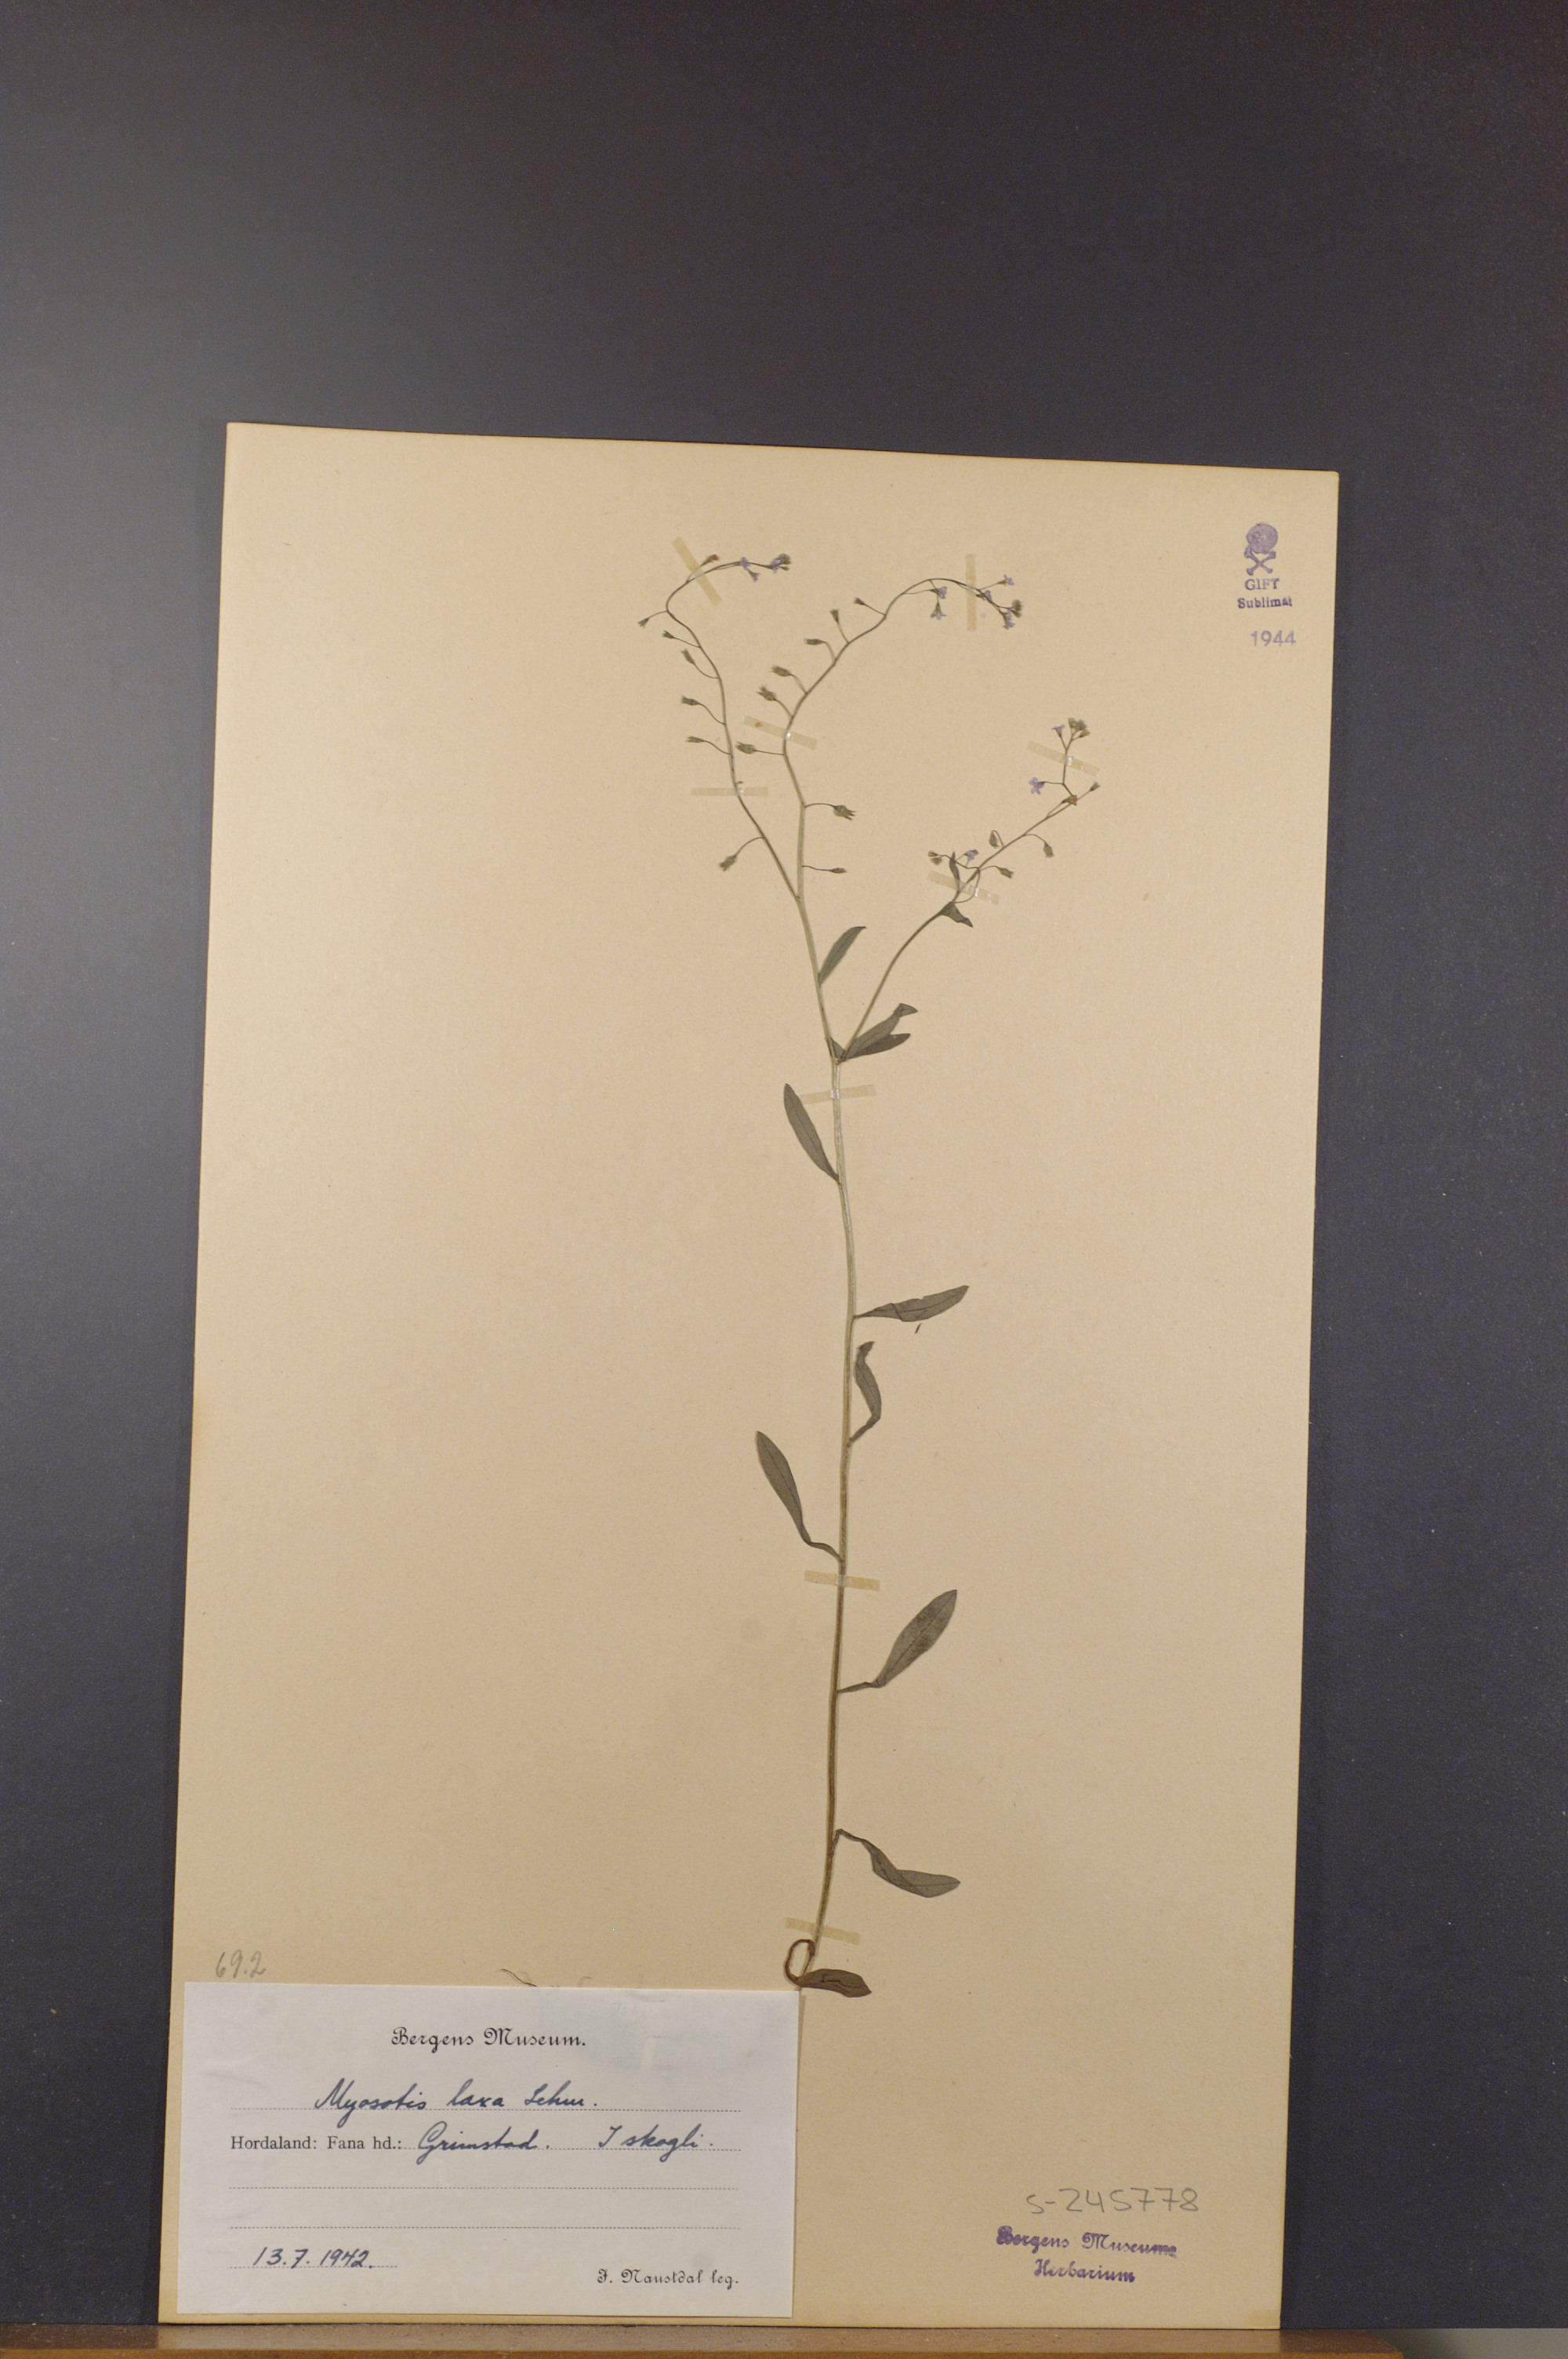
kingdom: Plantae
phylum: Tracheophyta
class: Magnoliopsida
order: Boraginales
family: Boraginaceae
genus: Myosotis
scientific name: Myosotis laxa
